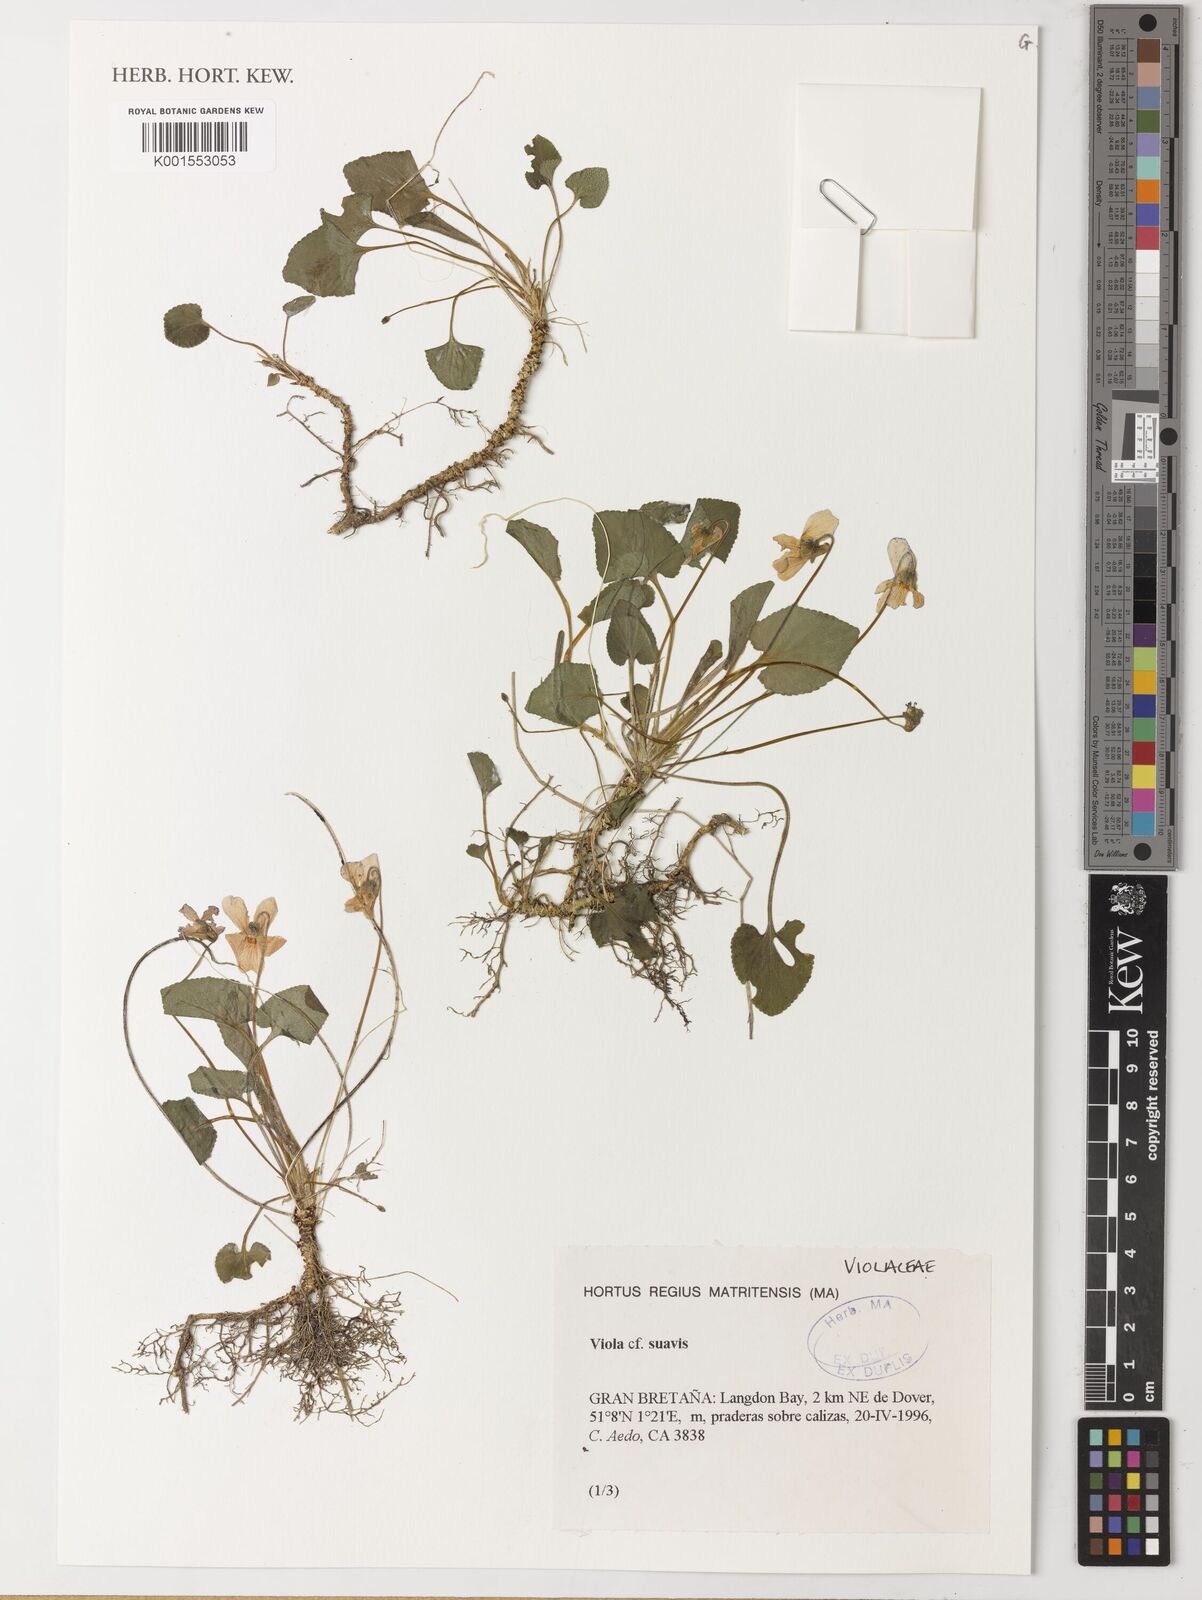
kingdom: Plantae
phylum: Tracheophyta
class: Magnoliopsida
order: Malpighiales
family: Violaceae
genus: Viola
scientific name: Viola suavis
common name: Russian violet
